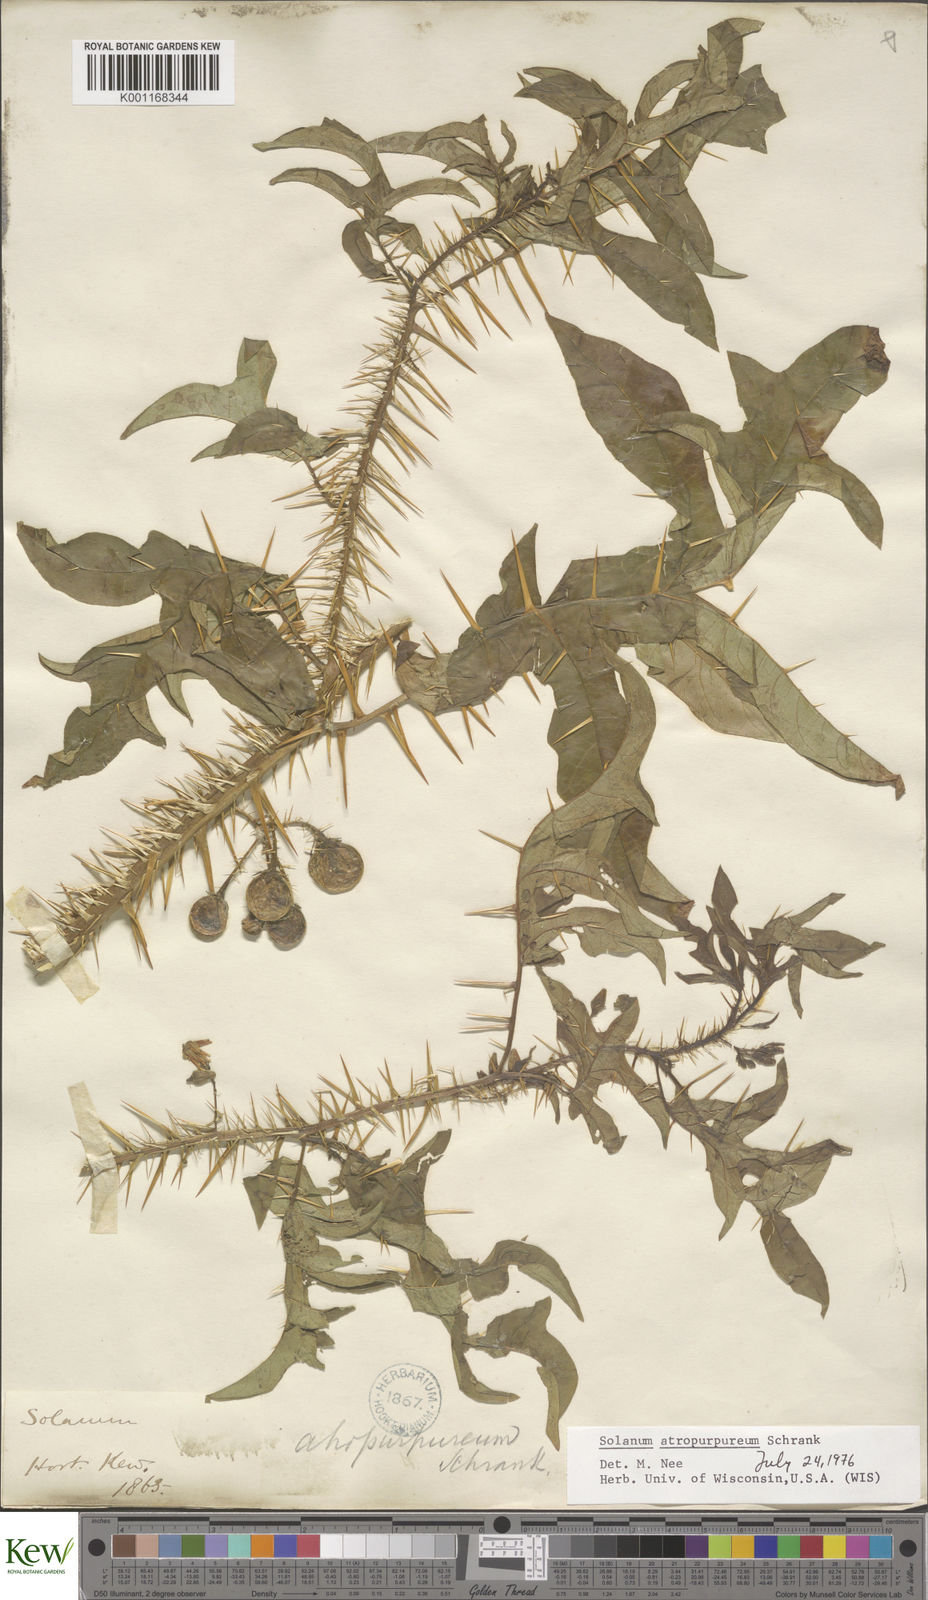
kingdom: Plantae
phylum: Tracheophyta
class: Magnoliopsida
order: Solanales
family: Solanaceae
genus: Solanum
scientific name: Solanum atropurpureum
